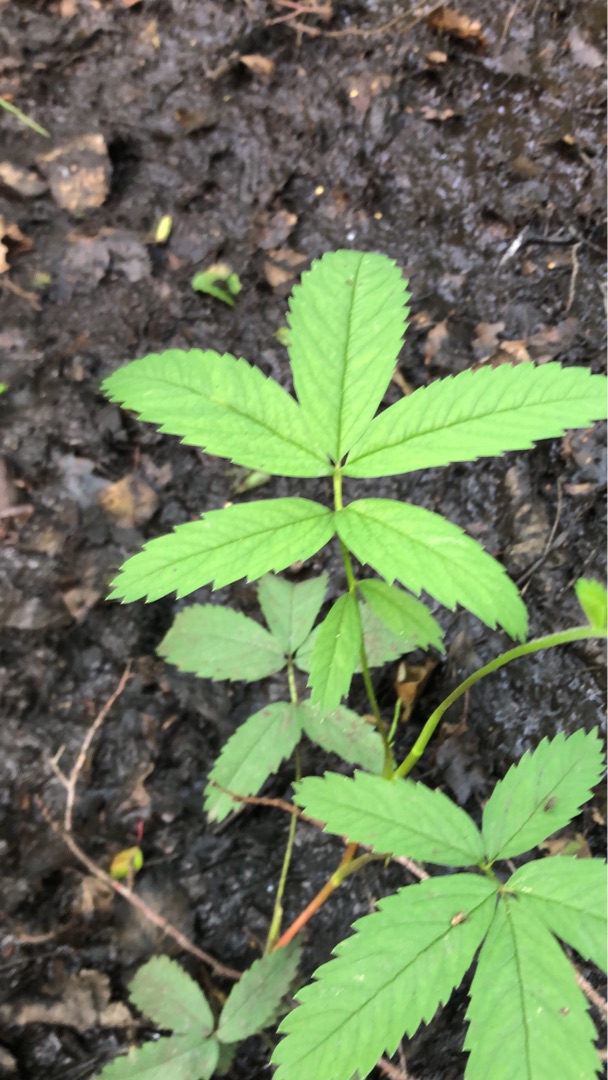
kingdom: Plantae
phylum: Tracheophyta
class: Magnoliopsida
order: Rosales
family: Rosaceae
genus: Comarum
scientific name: Comarum palustre
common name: Kragefod
